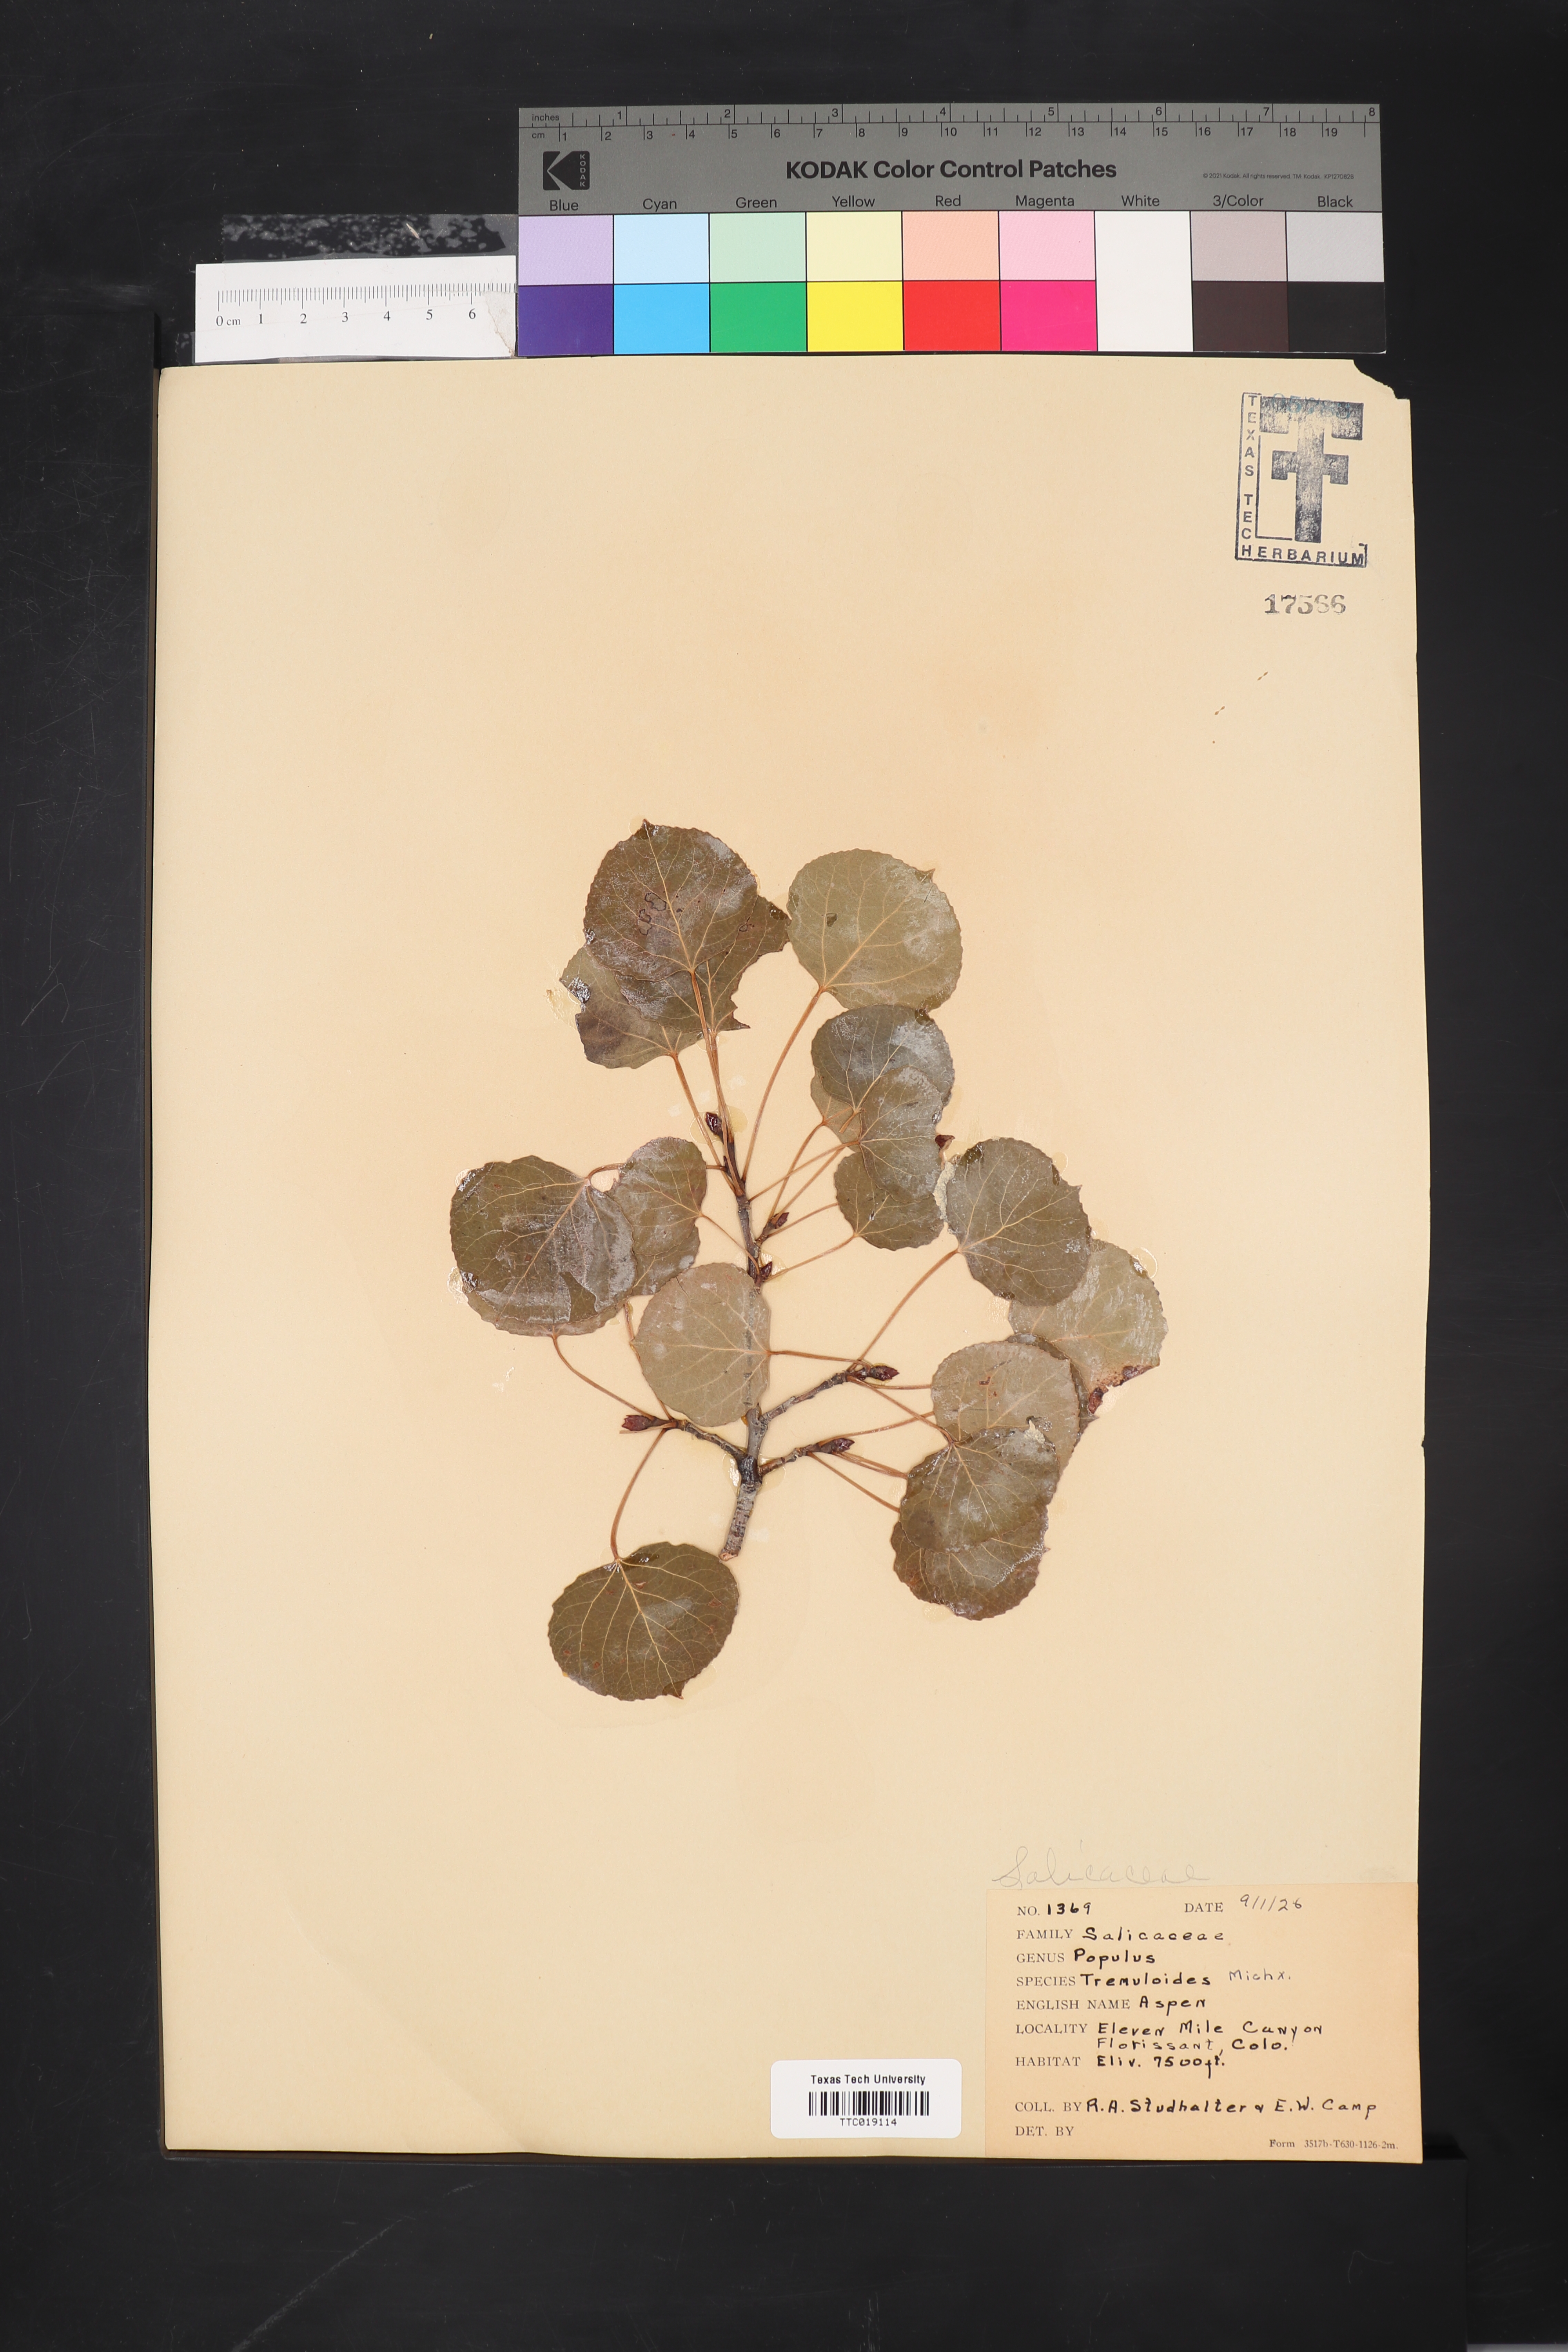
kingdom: Plantae
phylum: Tracheophyta
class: Magnoliopsida
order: Malpighiales
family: Salicaceae
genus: Populus
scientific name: Populus tremuloides
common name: Quaking aspen
